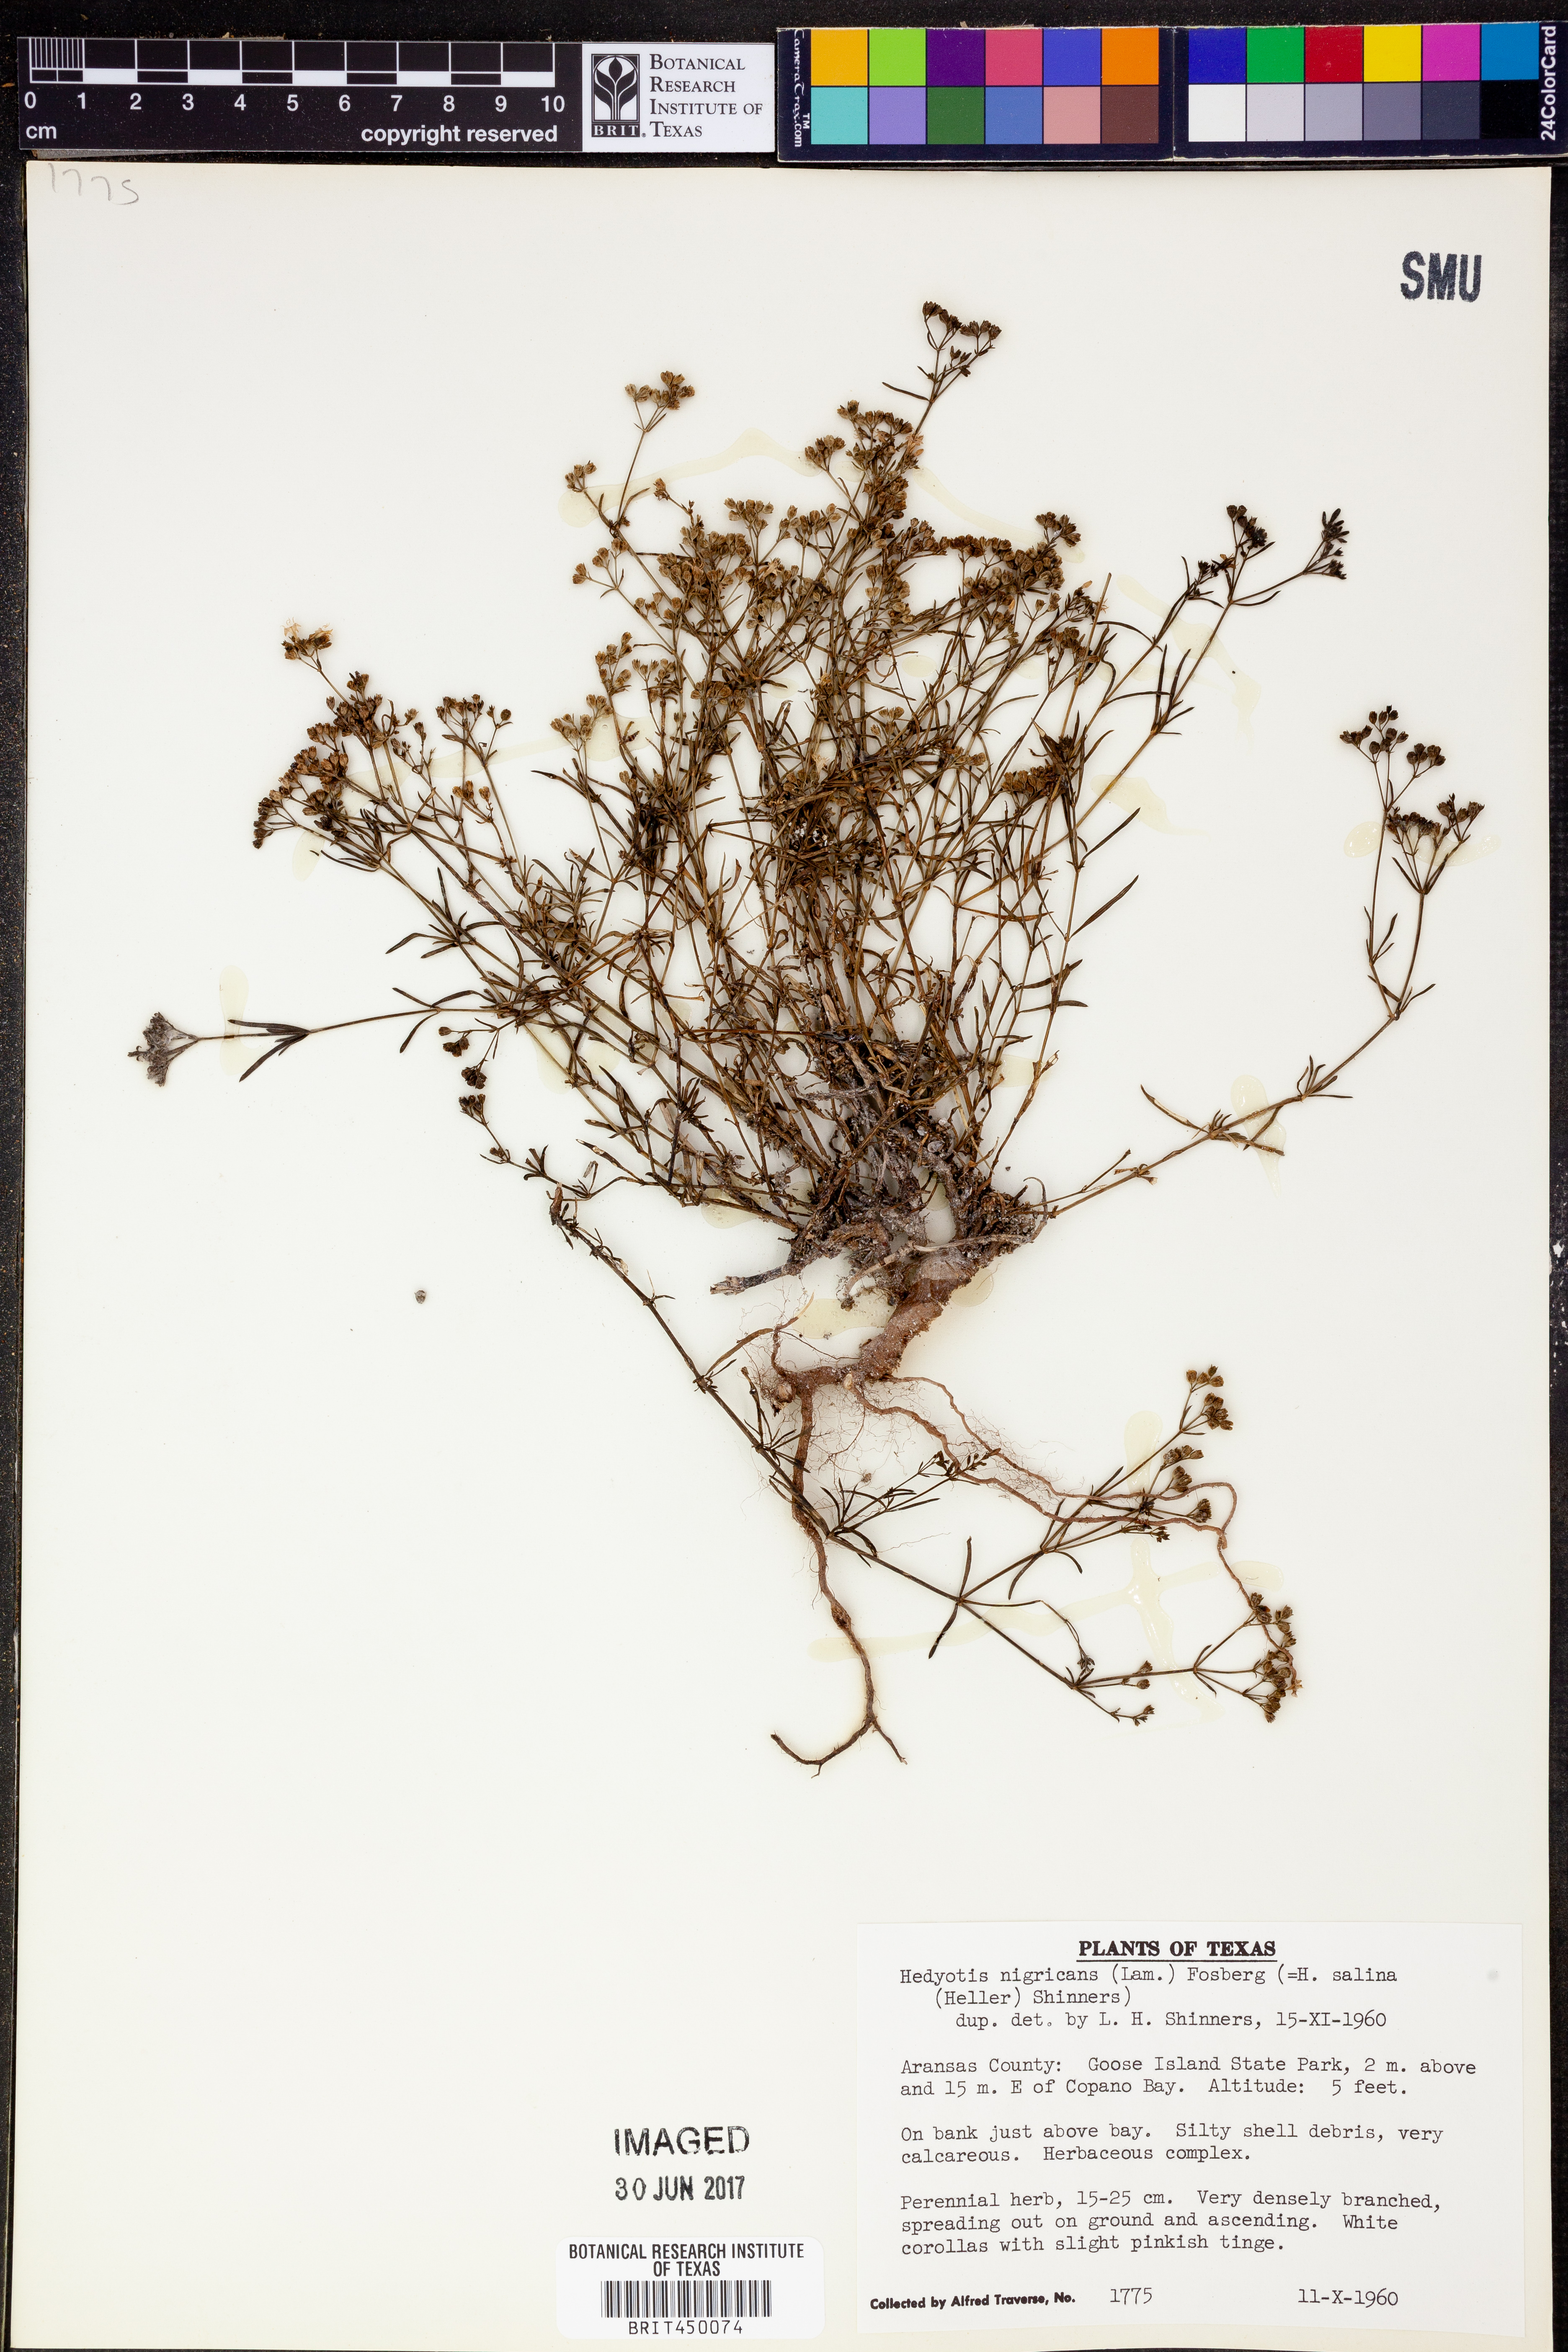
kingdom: Plantae
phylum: Tracheophyta
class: Magnoliopsida
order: Gentianales
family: Rubiaceae
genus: Stenaria
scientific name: Stenaria nigricans
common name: Diamondflowers
